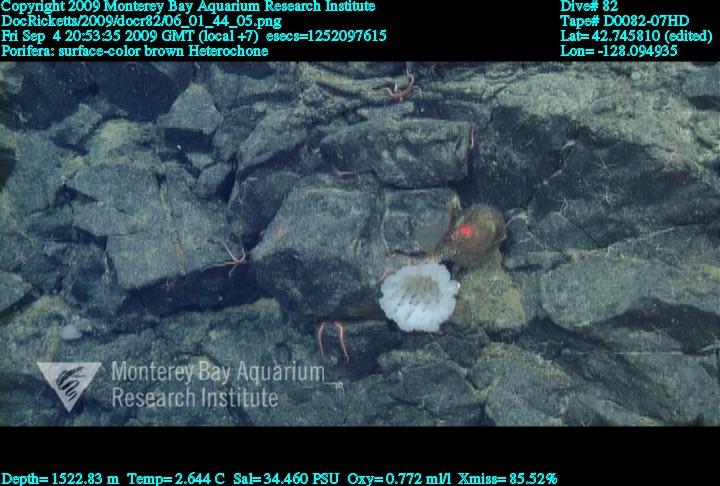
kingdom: Animalia
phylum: Porifera
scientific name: Porifera
